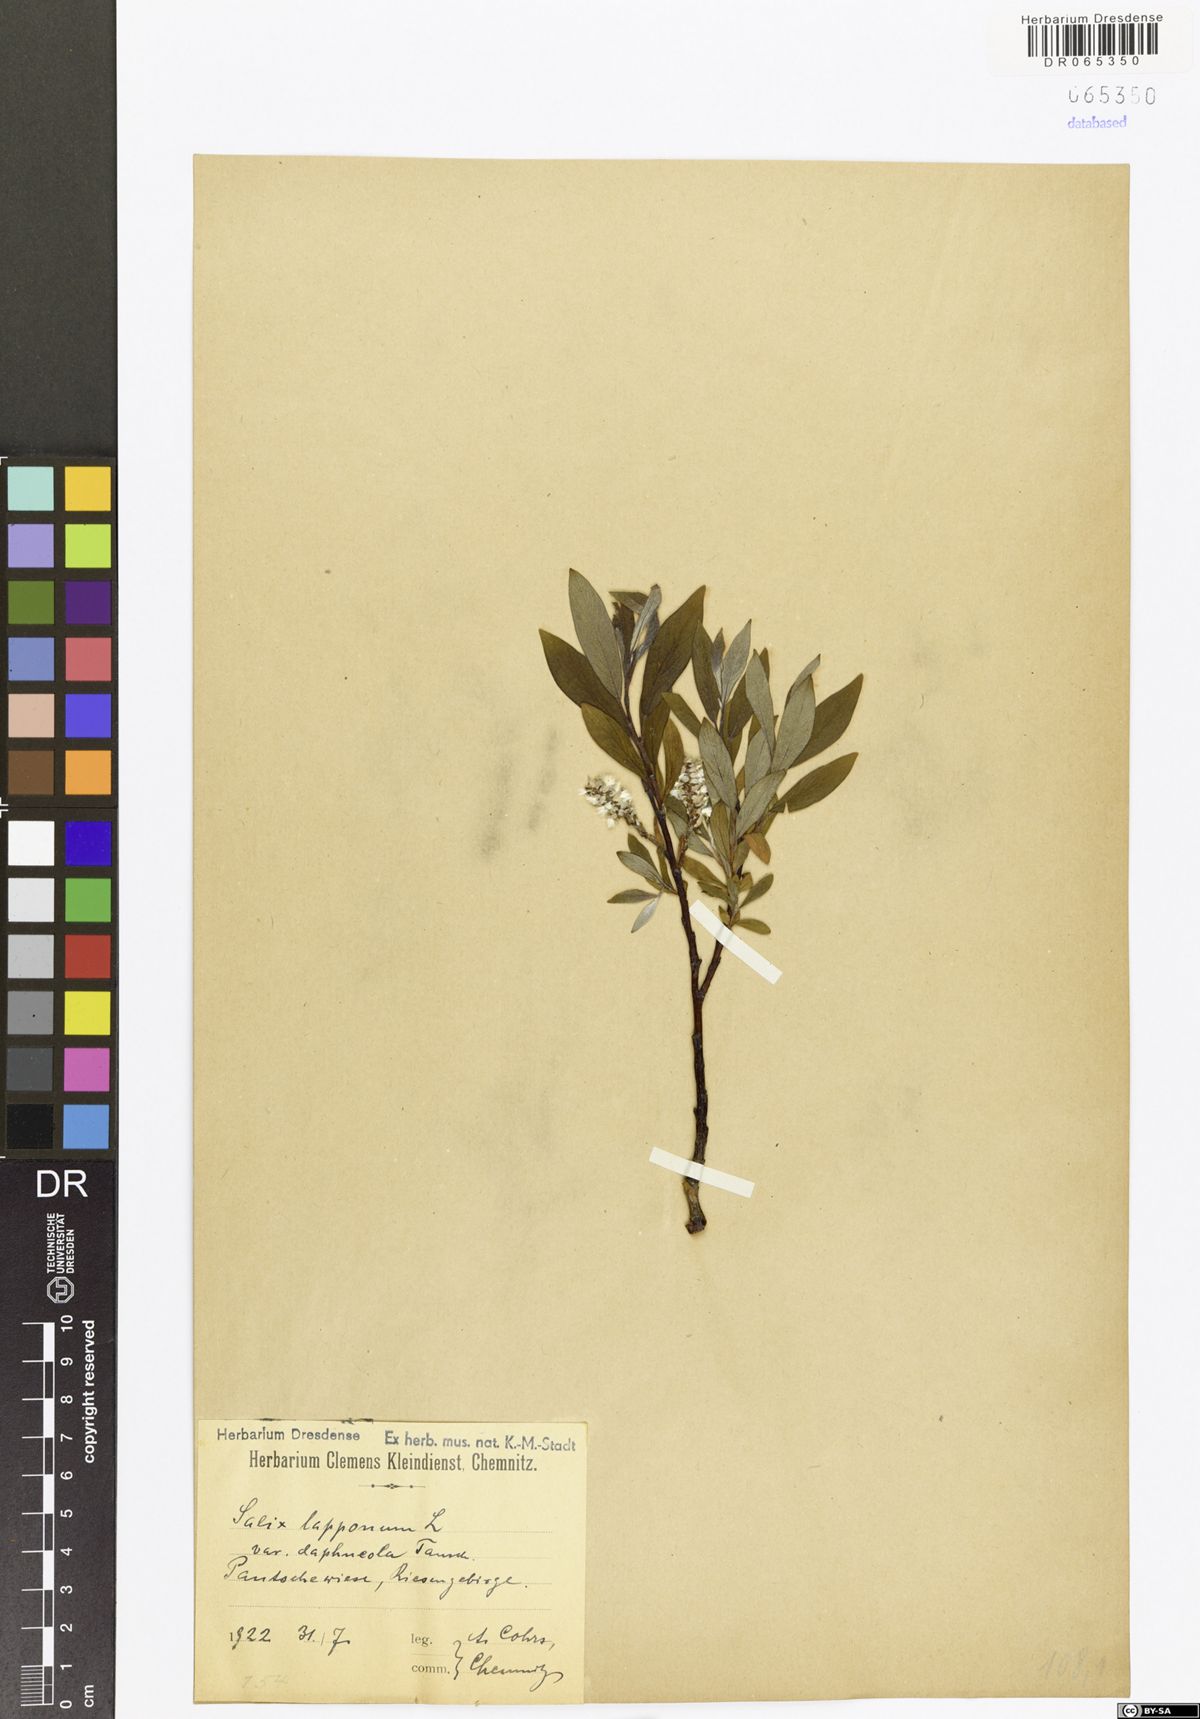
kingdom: Plantae
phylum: Tracheophyta
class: Magnoliopsida
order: Malpighiales
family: Salicaceae
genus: Salix
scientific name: Salix lapponum
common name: Downy willow
